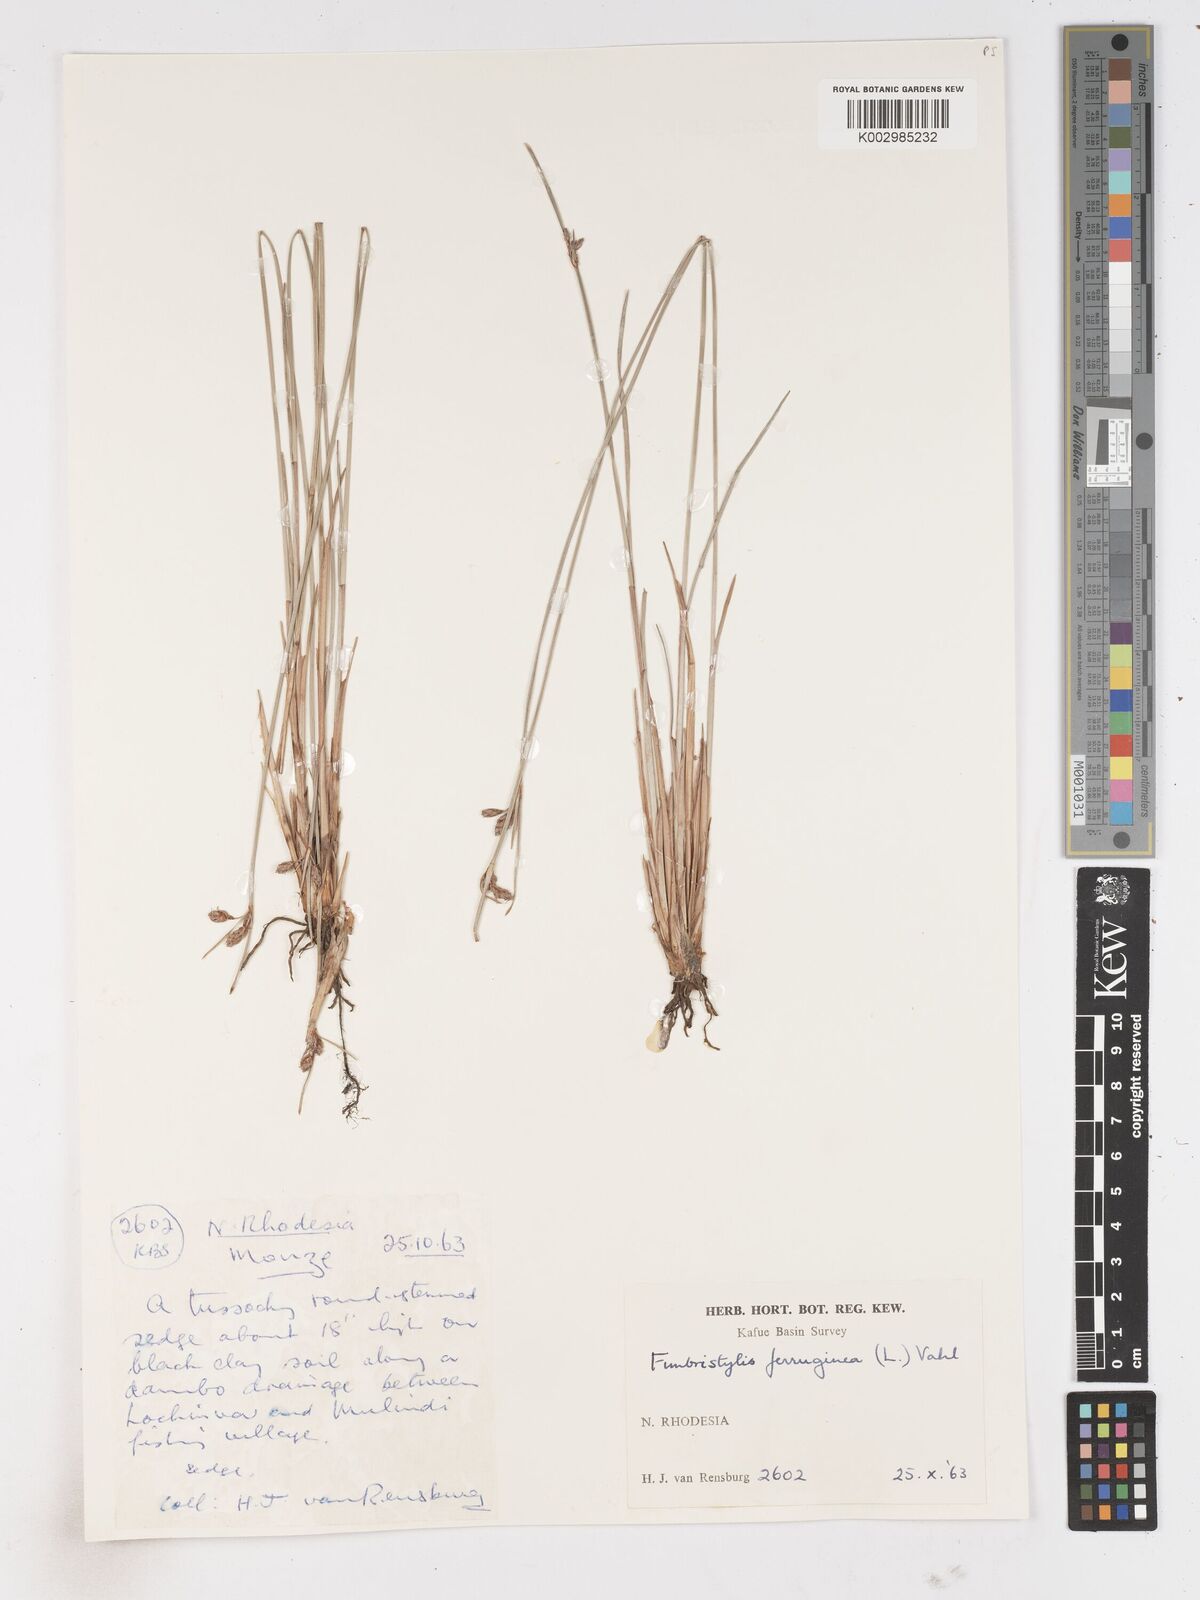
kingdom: Plantae
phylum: Tracheophyta
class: Liliopsida
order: Poales
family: Cyperaceae
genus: Fimbristylis
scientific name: Fimbristylis ferruginea
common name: West indian fimbry
